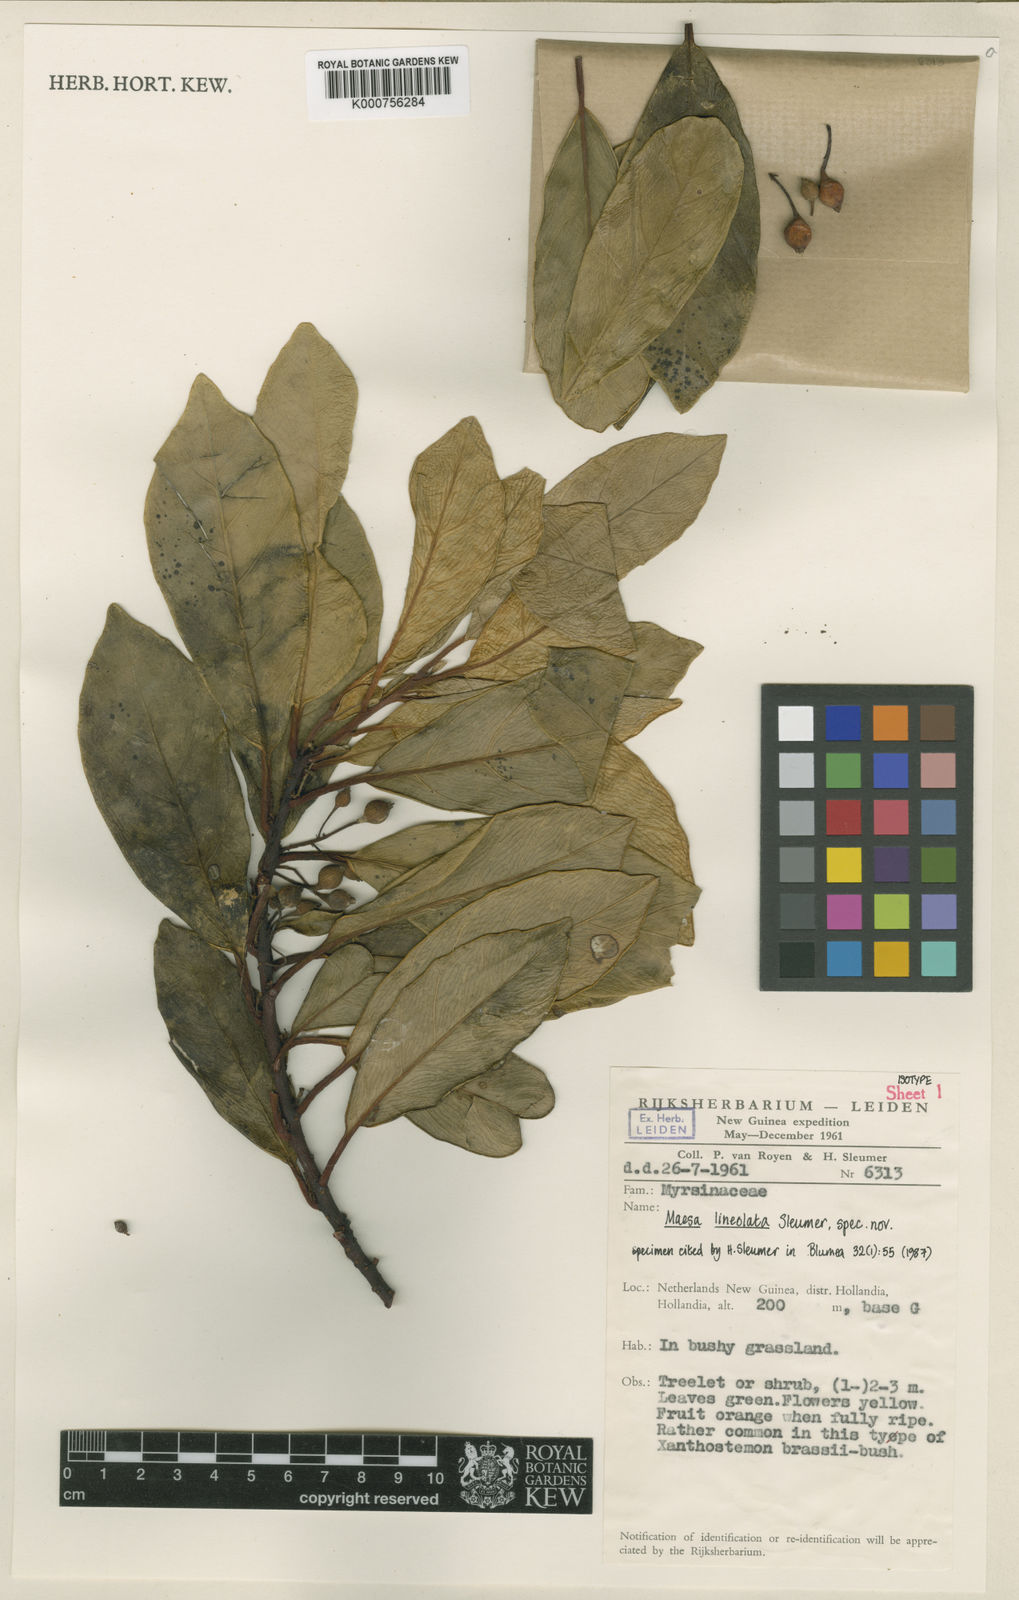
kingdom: Plantae
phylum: Tracheophyta
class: Magnoliopsida
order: Ericales
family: Primulaceae
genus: Maesa
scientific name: Maesa lineolata
